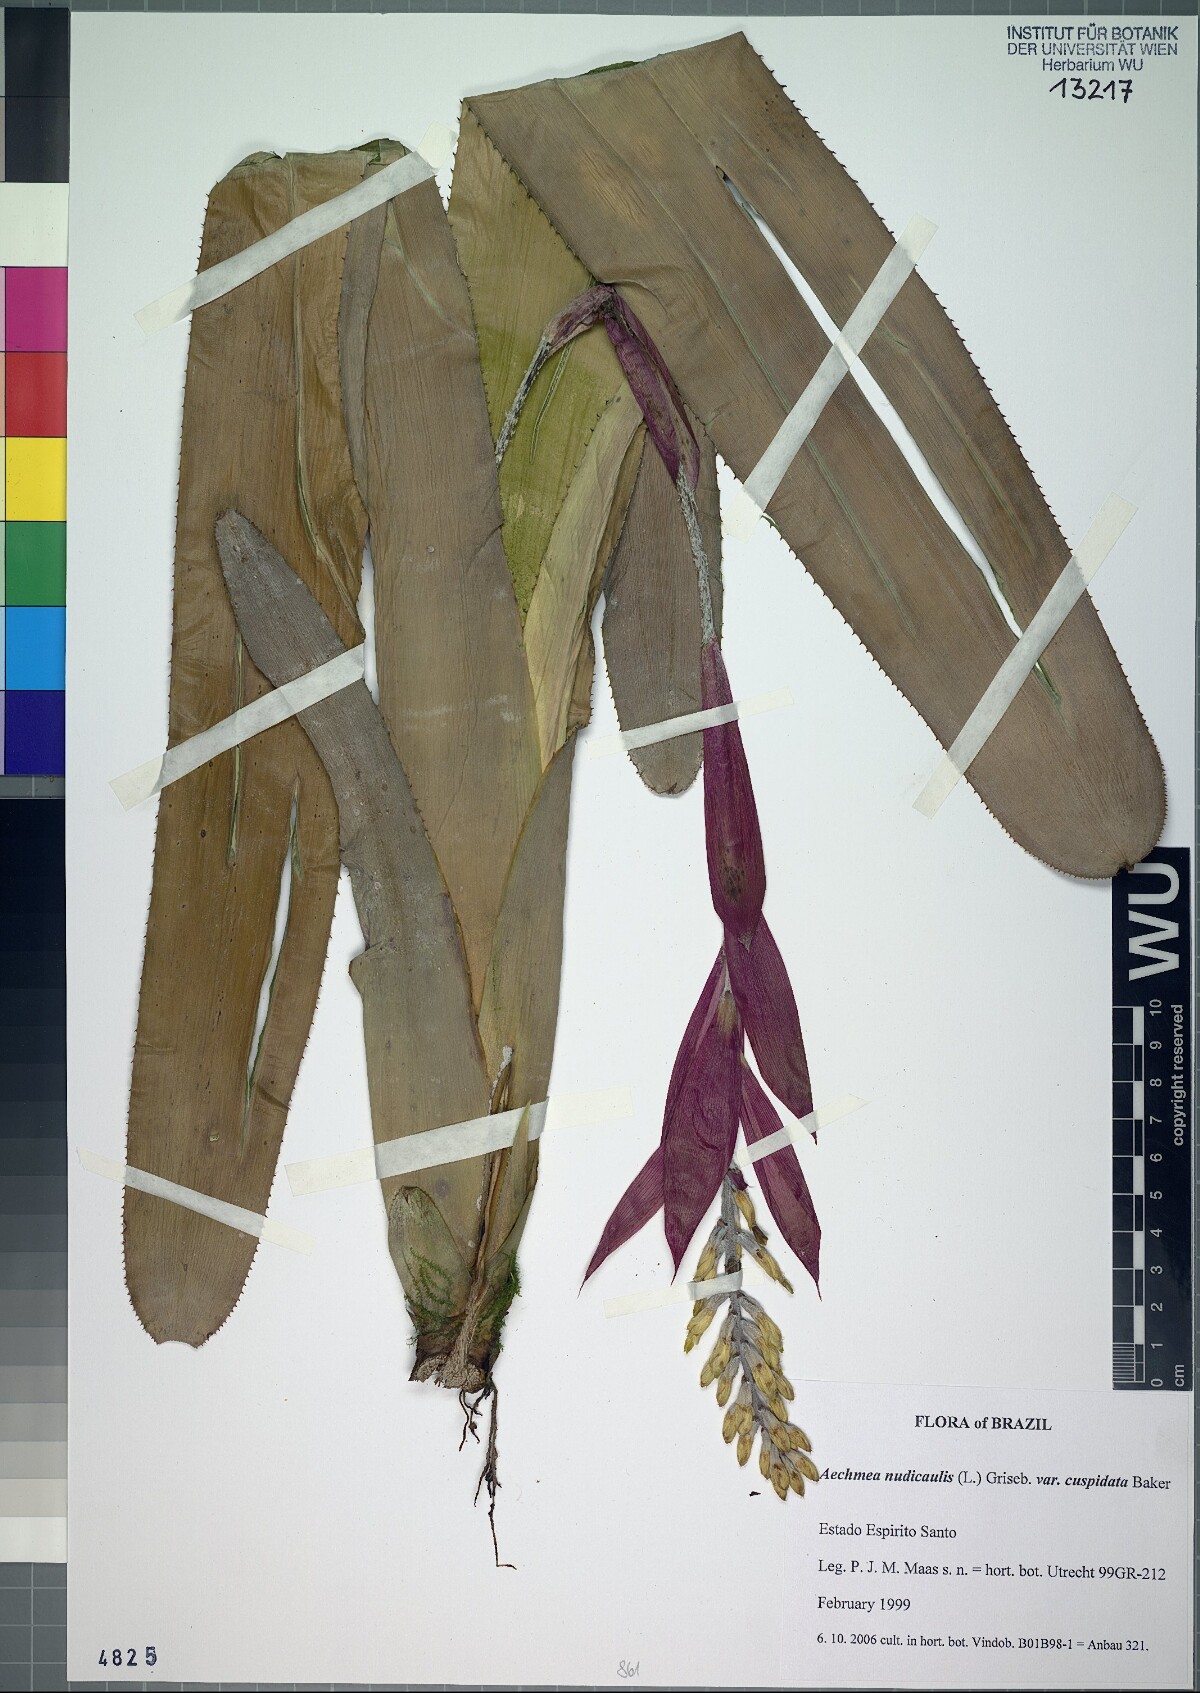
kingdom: Plantae
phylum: Tracheophyta
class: Liliopsida
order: Poales
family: Bromeliaceae
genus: Aechmea
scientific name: Aechmea nudicaulis
